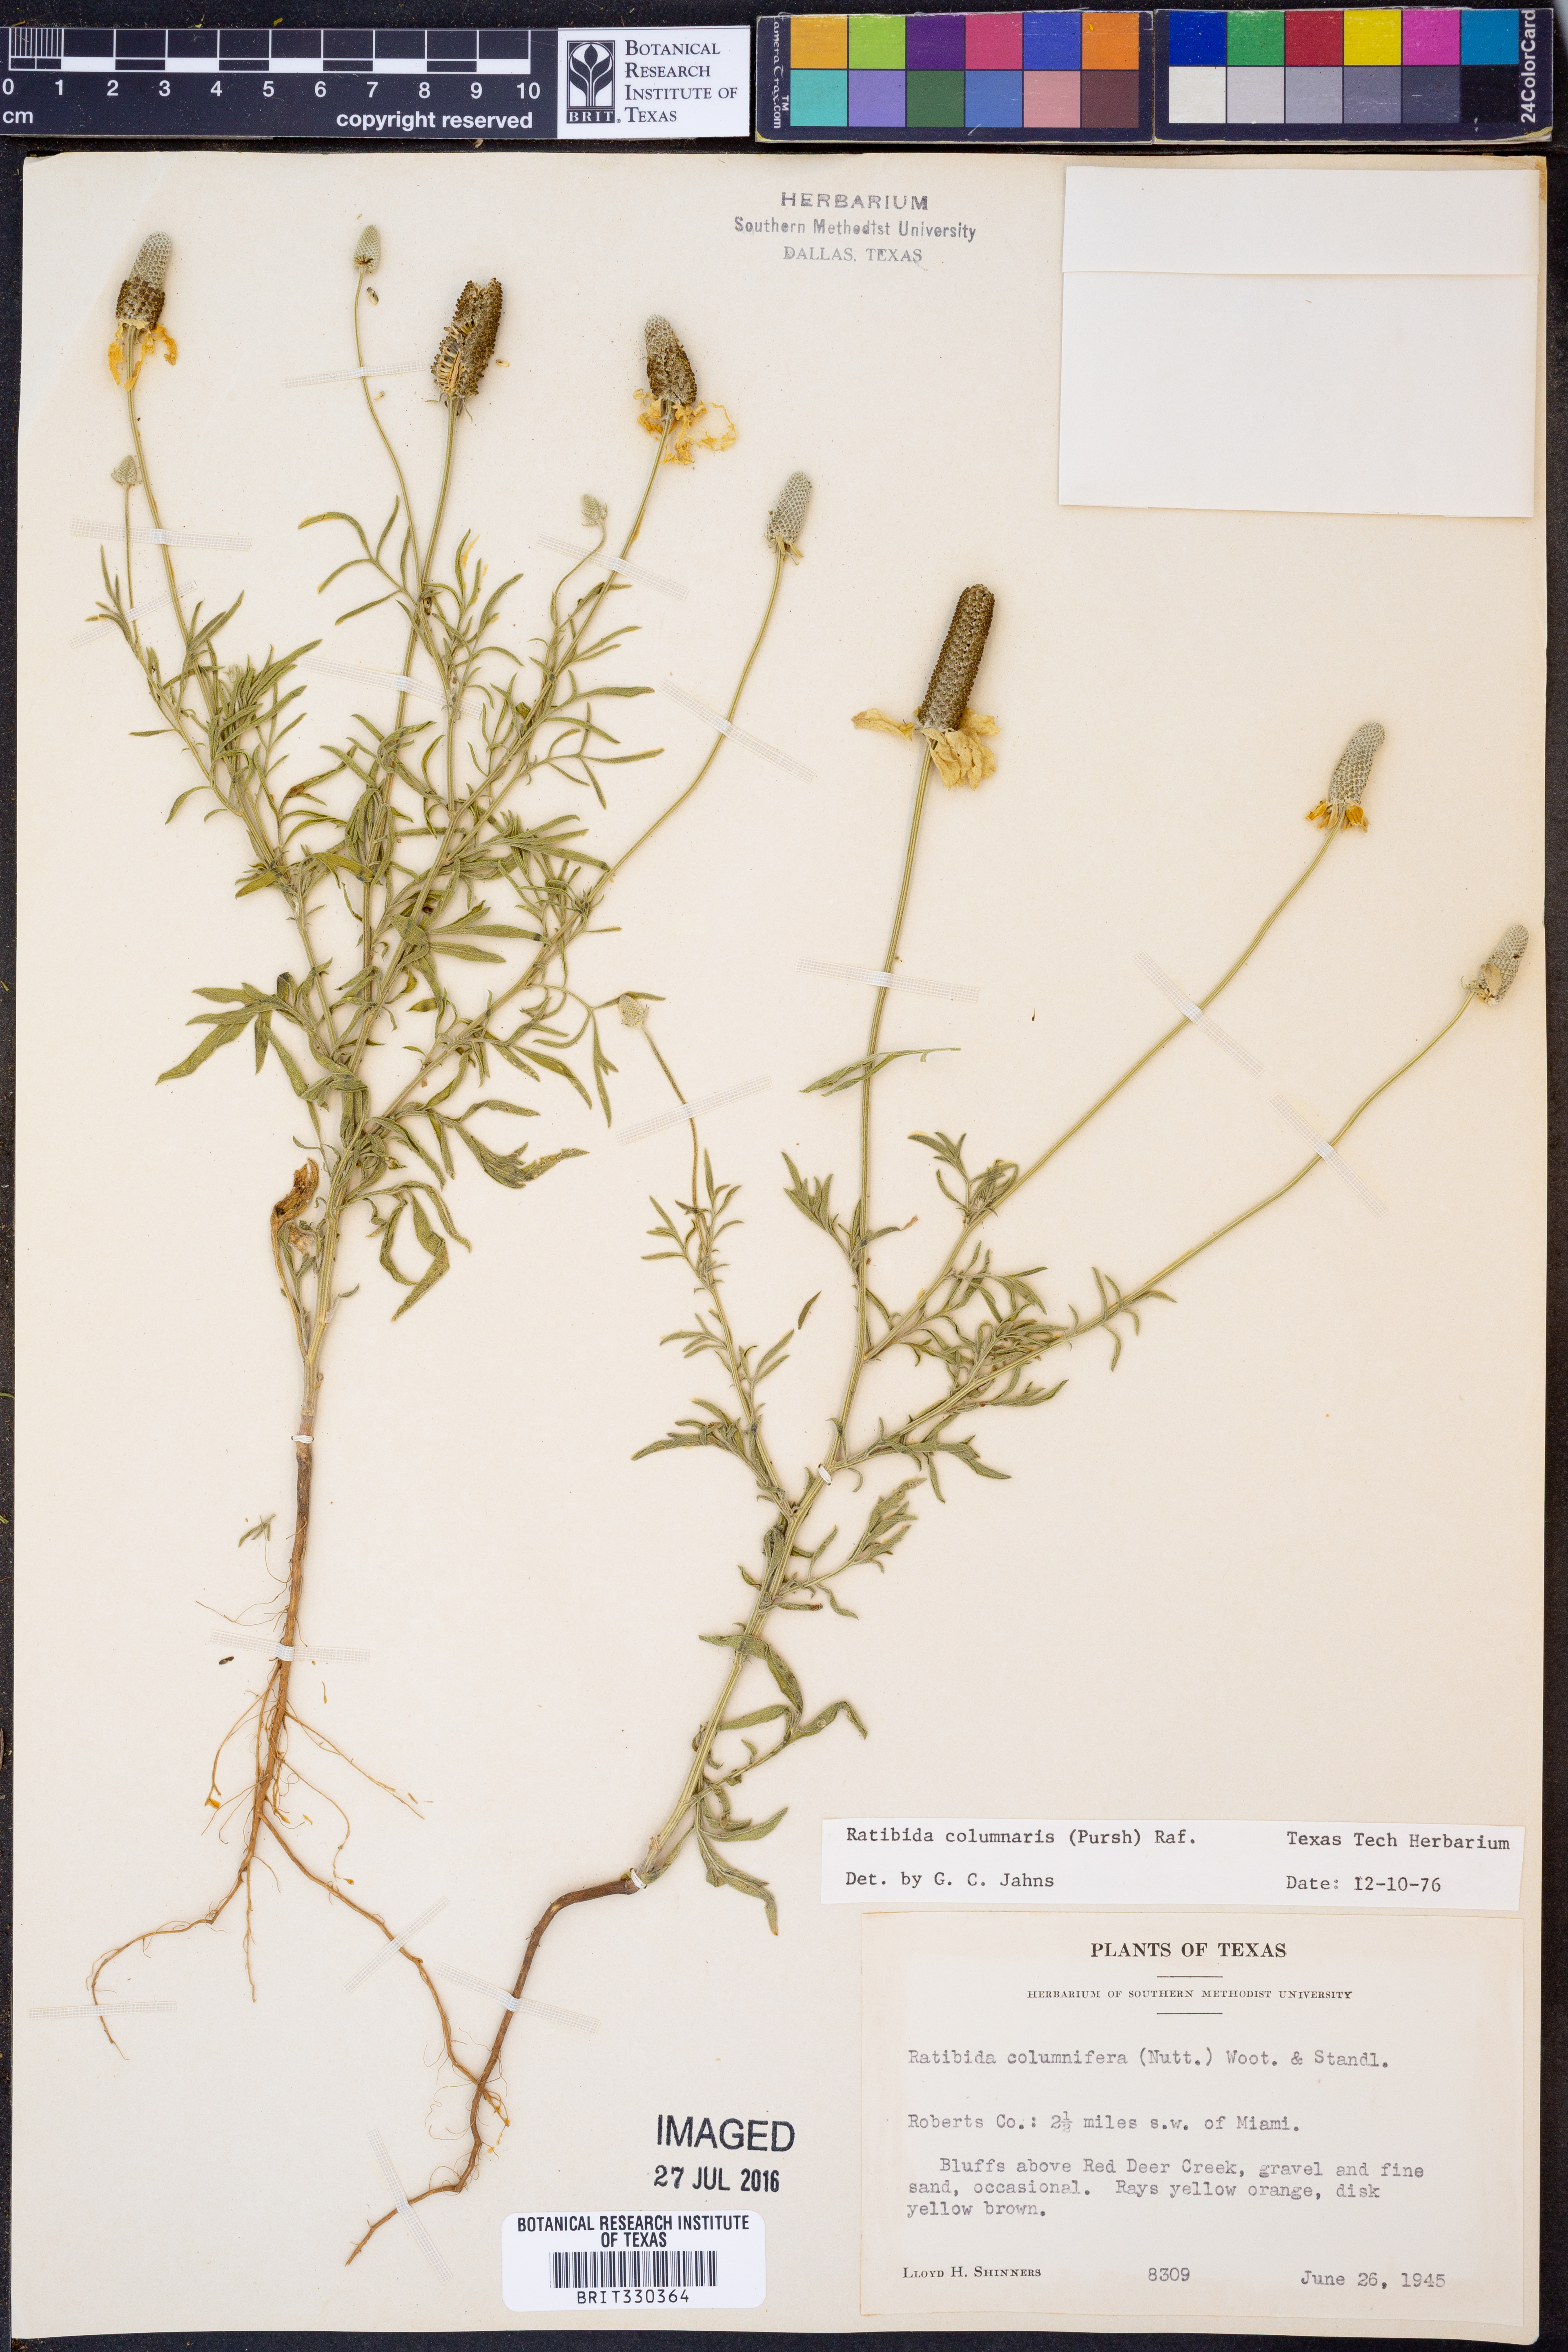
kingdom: Plantae
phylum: Tracheophyta
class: Magnoliopsida
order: Asterales
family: Asteraceae
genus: Ratibida
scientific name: Ratibida columnifera
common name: Prairie coneflower
